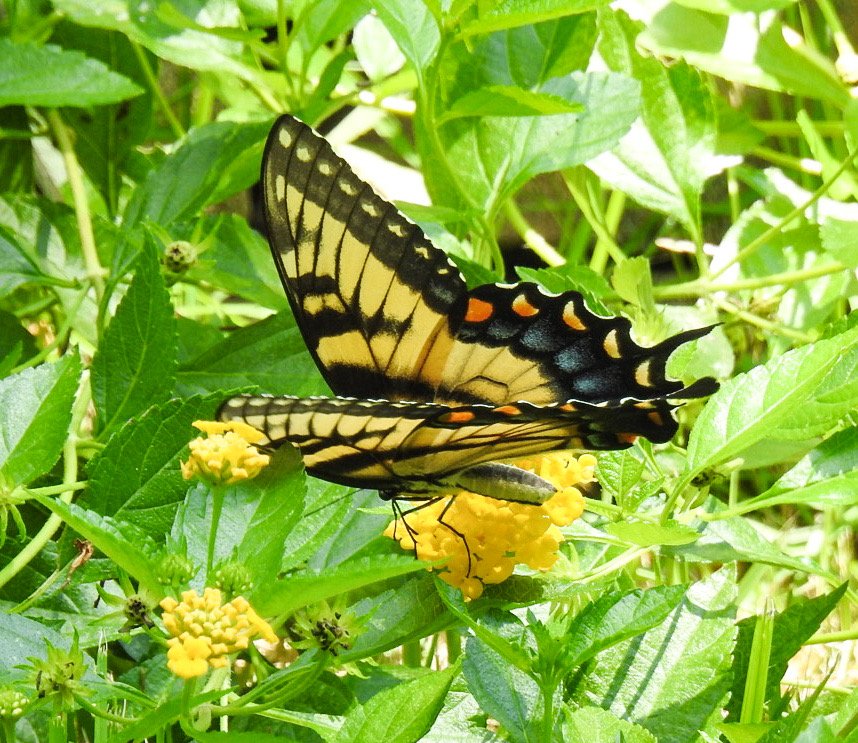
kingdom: Animalia
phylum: Arthropoda
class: Insecta
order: Lepidoptera
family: Papilionidae
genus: Pterourus
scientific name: Pterourus glaucus
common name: Eastern Tiger Swallowtail
